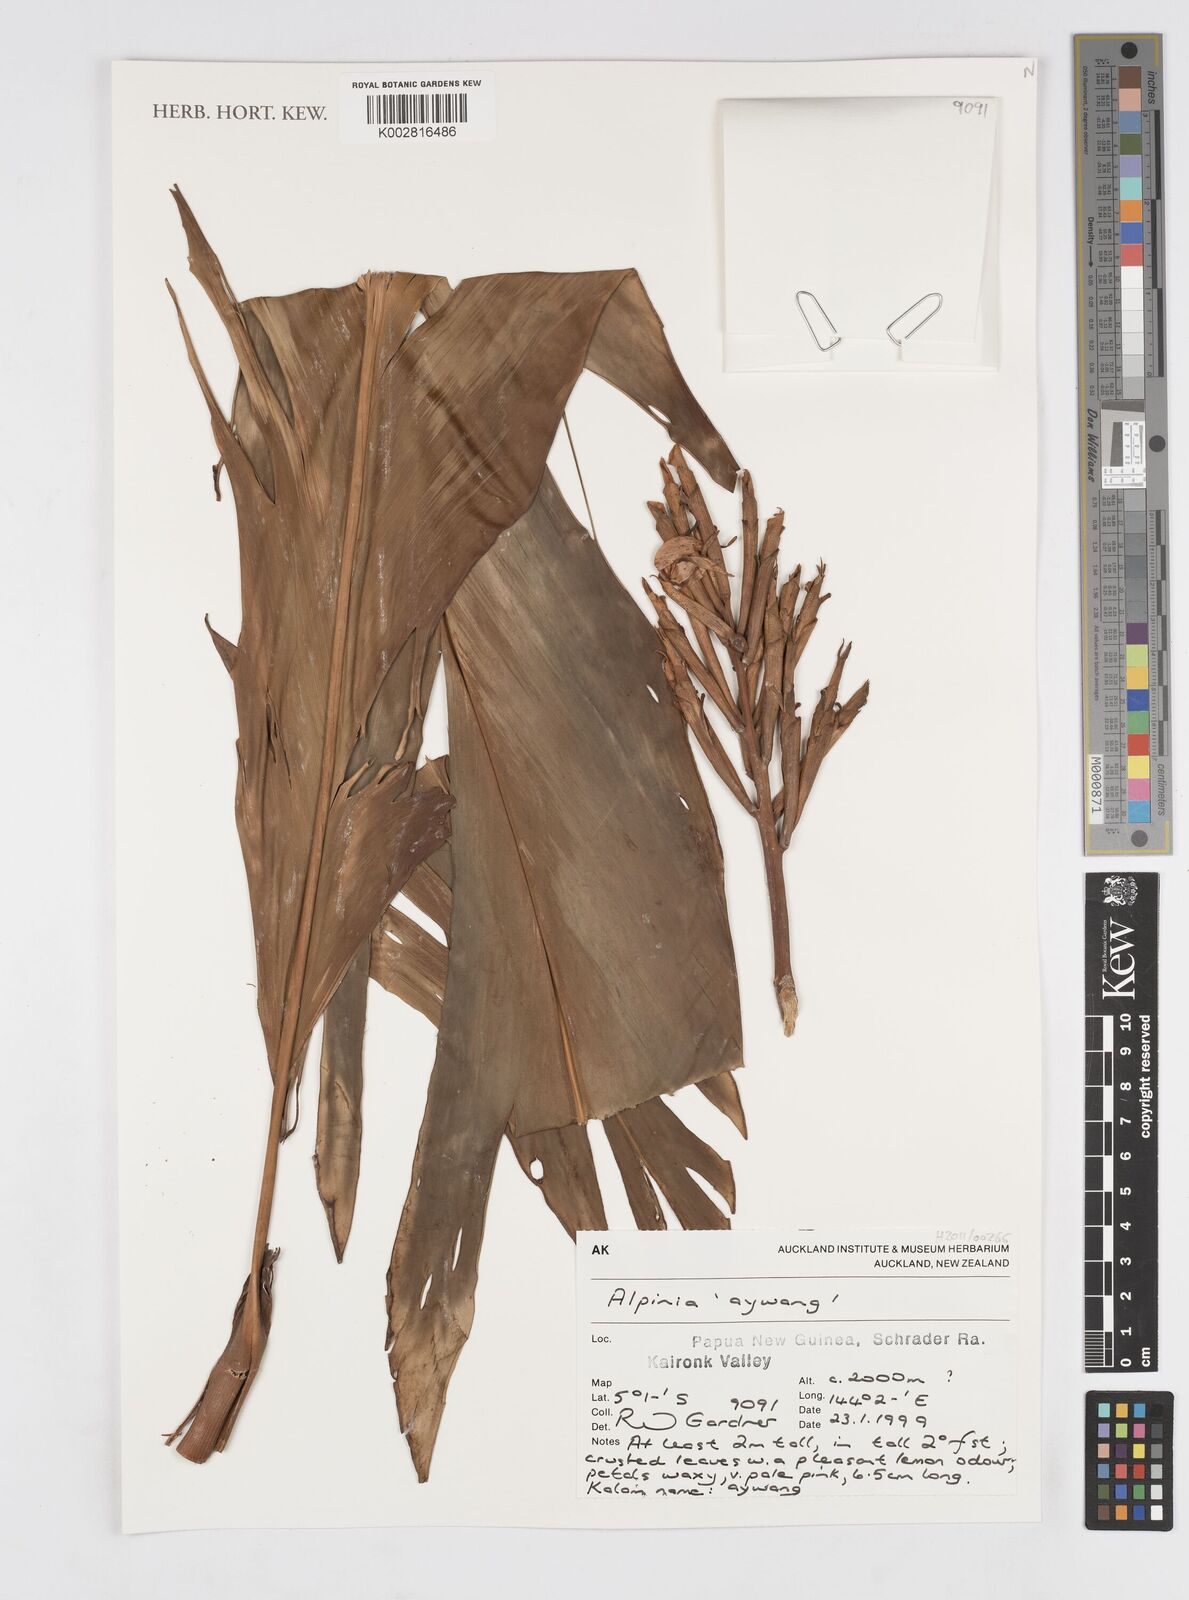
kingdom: Plantae
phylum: Tracheophyta
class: Liliopsida
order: Zingiberales
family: Zingiberaceae
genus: Alpinia
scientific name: Alpinia
